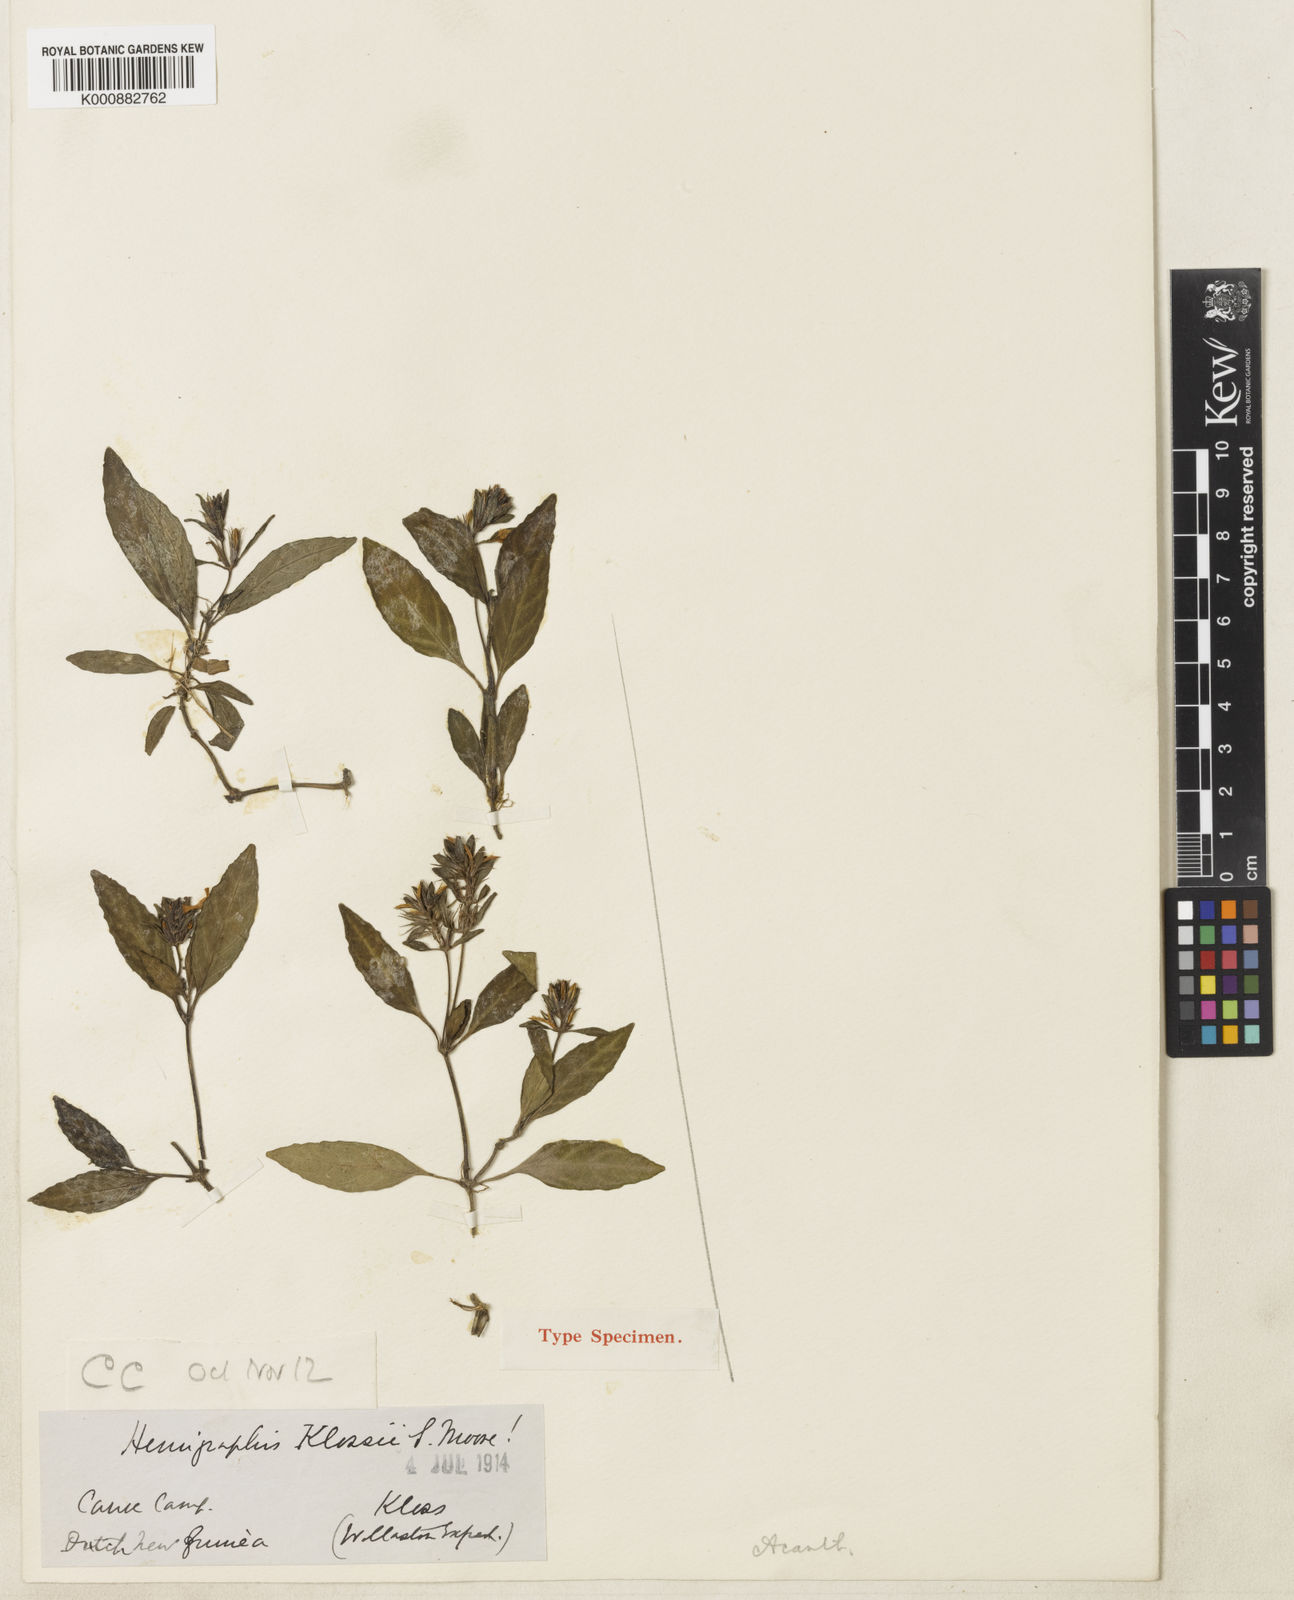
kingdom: Plantae
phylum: Tracheophyta
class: Magnoliopsida
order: Lamiales
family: Acanthaceae
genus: Strobilanthes
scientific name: Strobilanthes klossii
